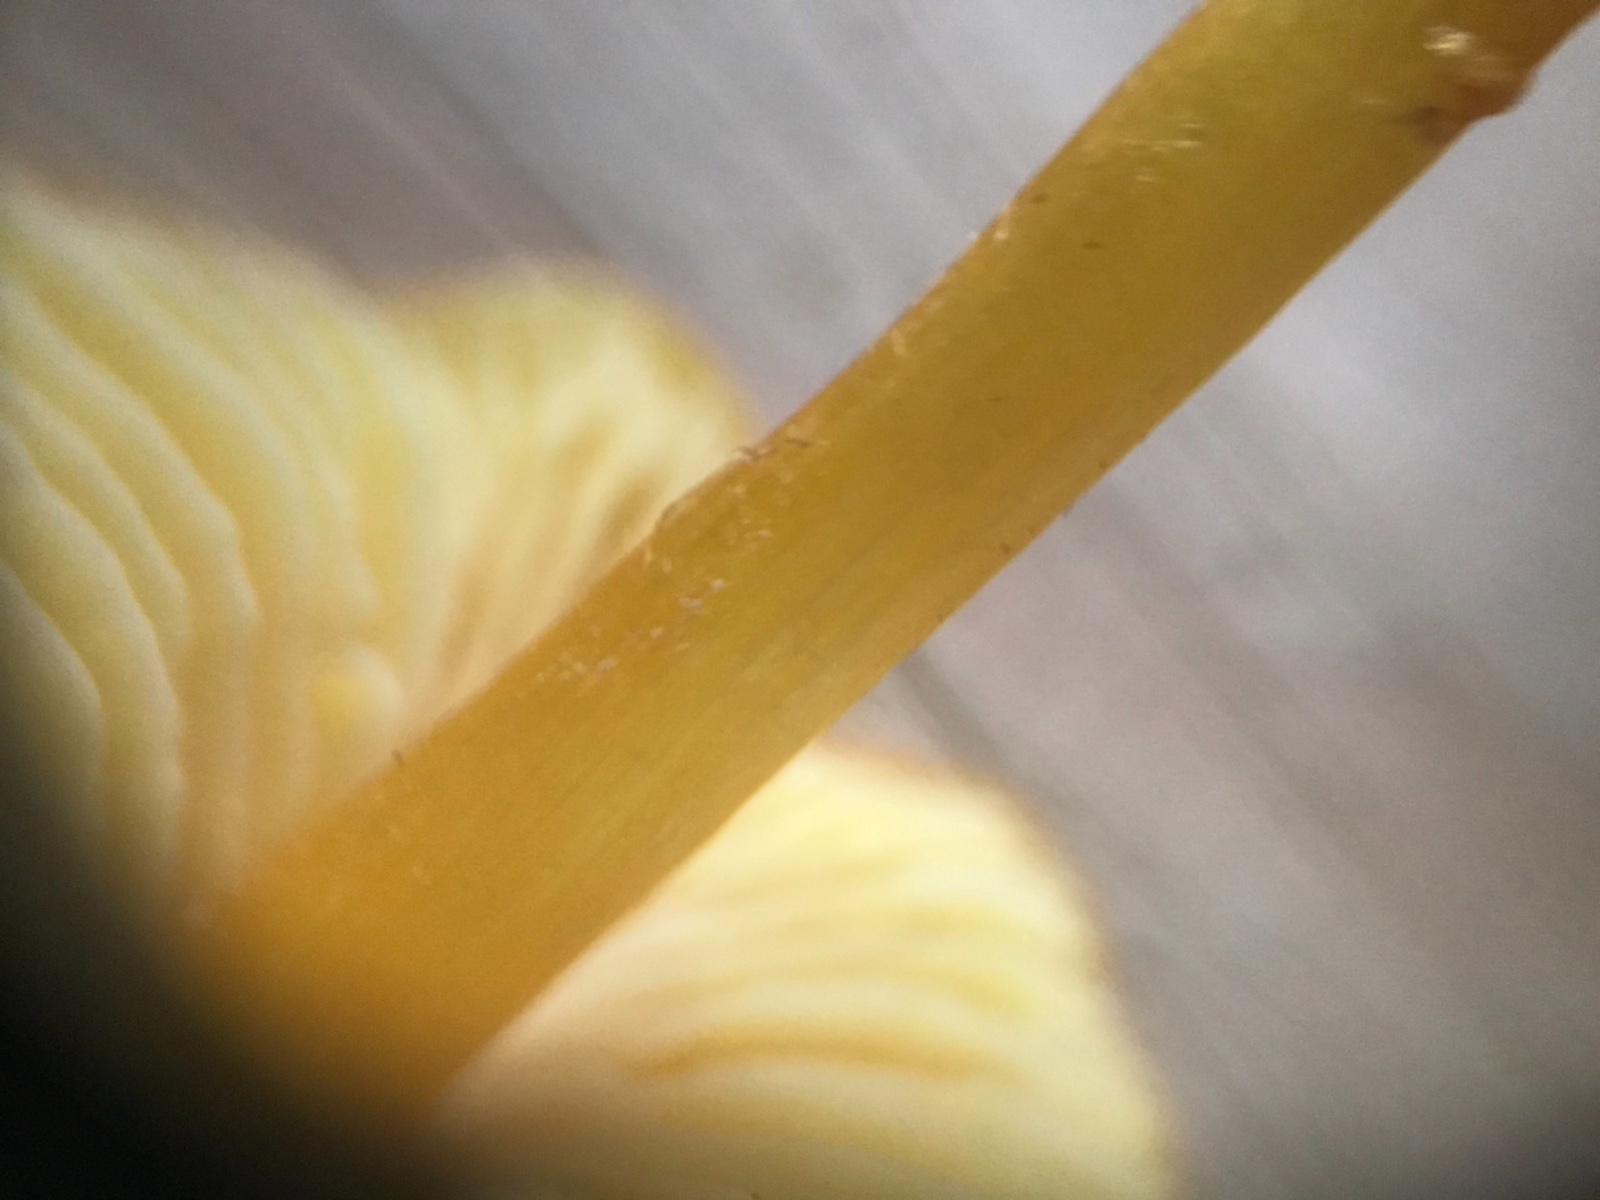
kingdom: Fungi
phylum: Basidiomycota
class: Agaricomycetes
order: Agaricales
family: Hygrophoraceae
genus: Hygrocybe
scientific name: Hygrocybe chlorophana
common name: gul vokshat
